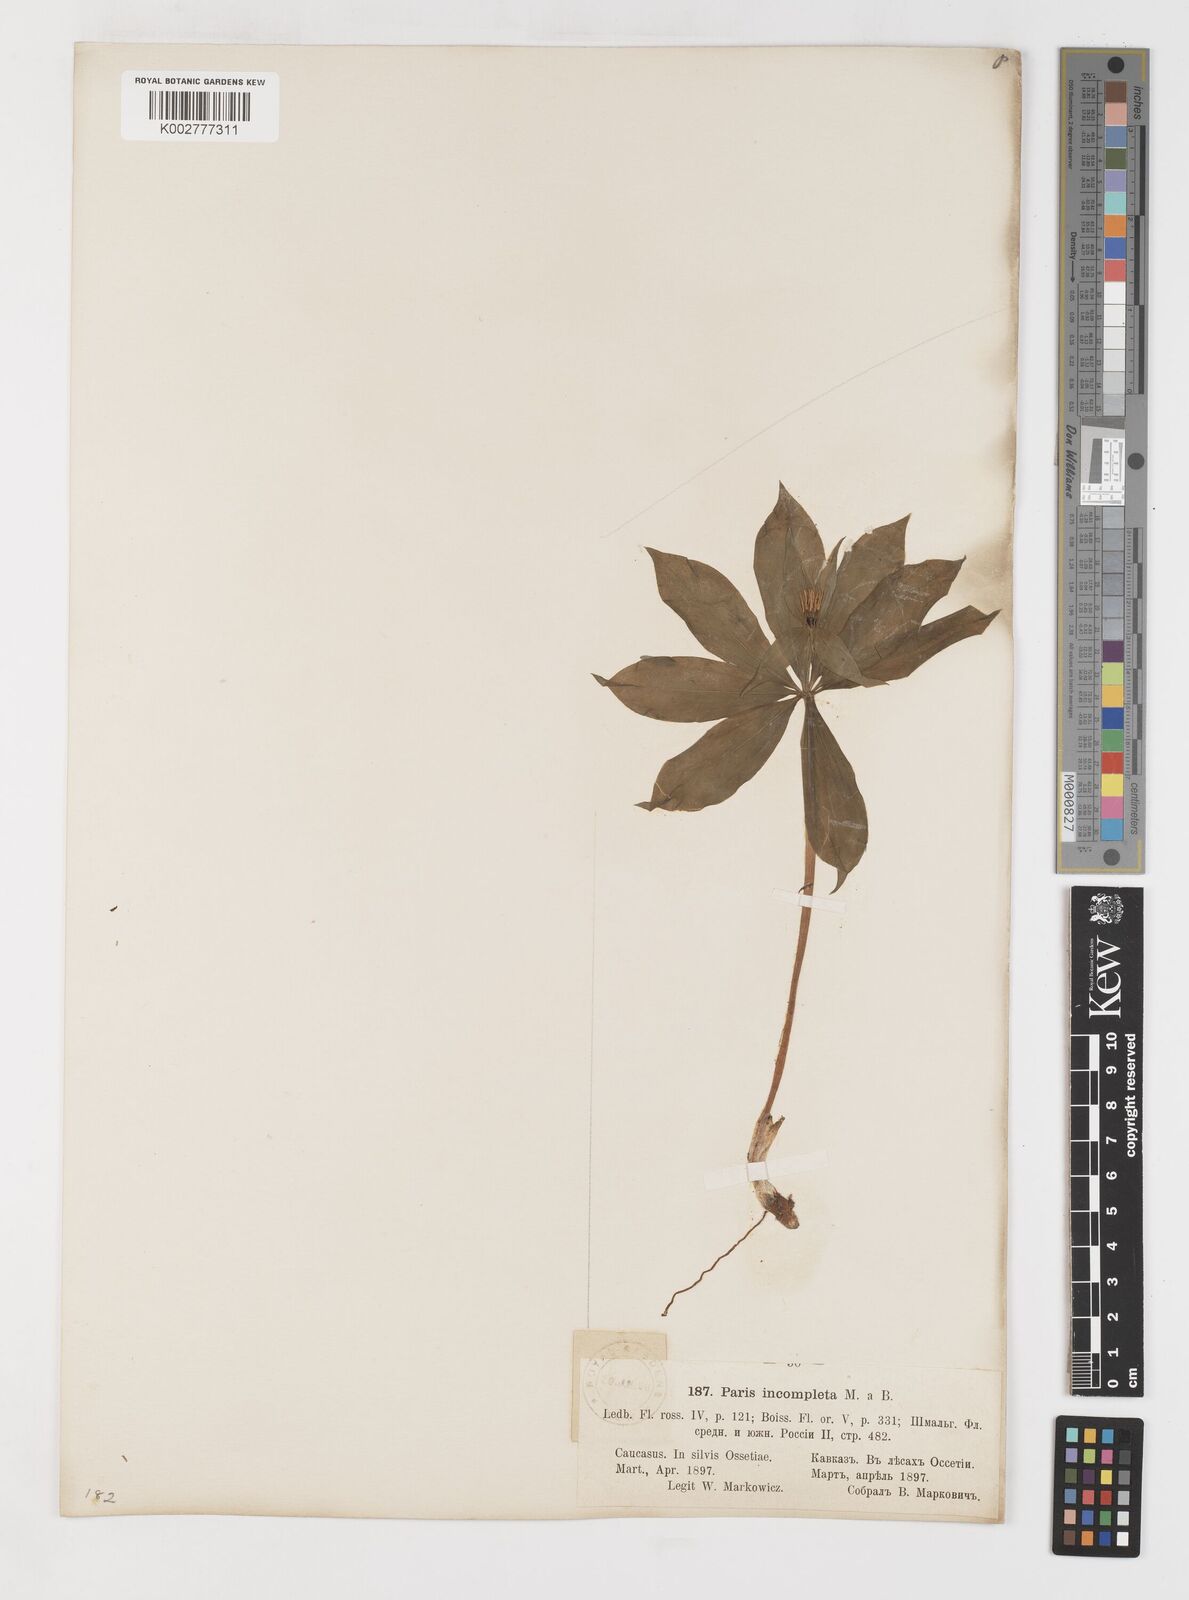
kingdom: Plantae
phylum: Tracheophyta
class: Liliopsida
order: Liliales
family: Melanthiaceae
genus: Paris
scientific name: Paris incompleta
